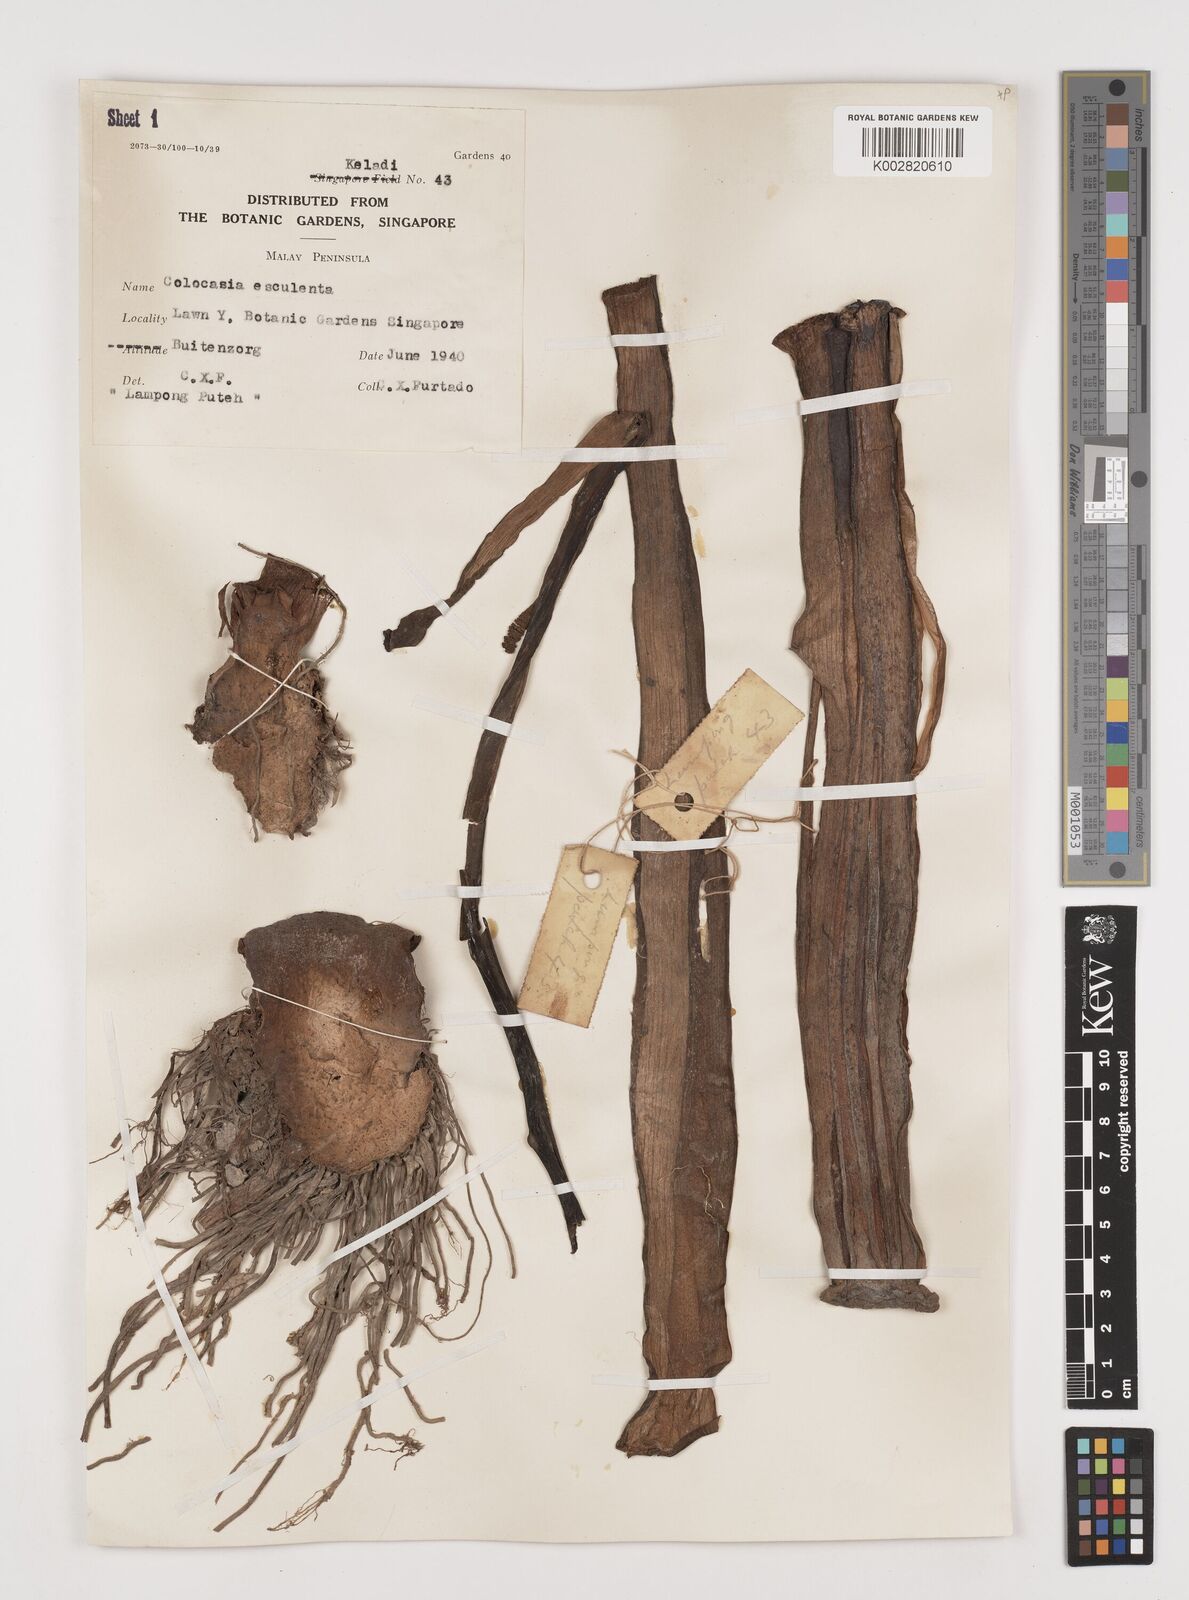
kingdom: Plantae
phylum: Tracheophyta
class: Liliopsida
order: Alismatales
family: Araceae
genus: Colocasia
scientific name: Colocasia esculenta
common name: Taro
